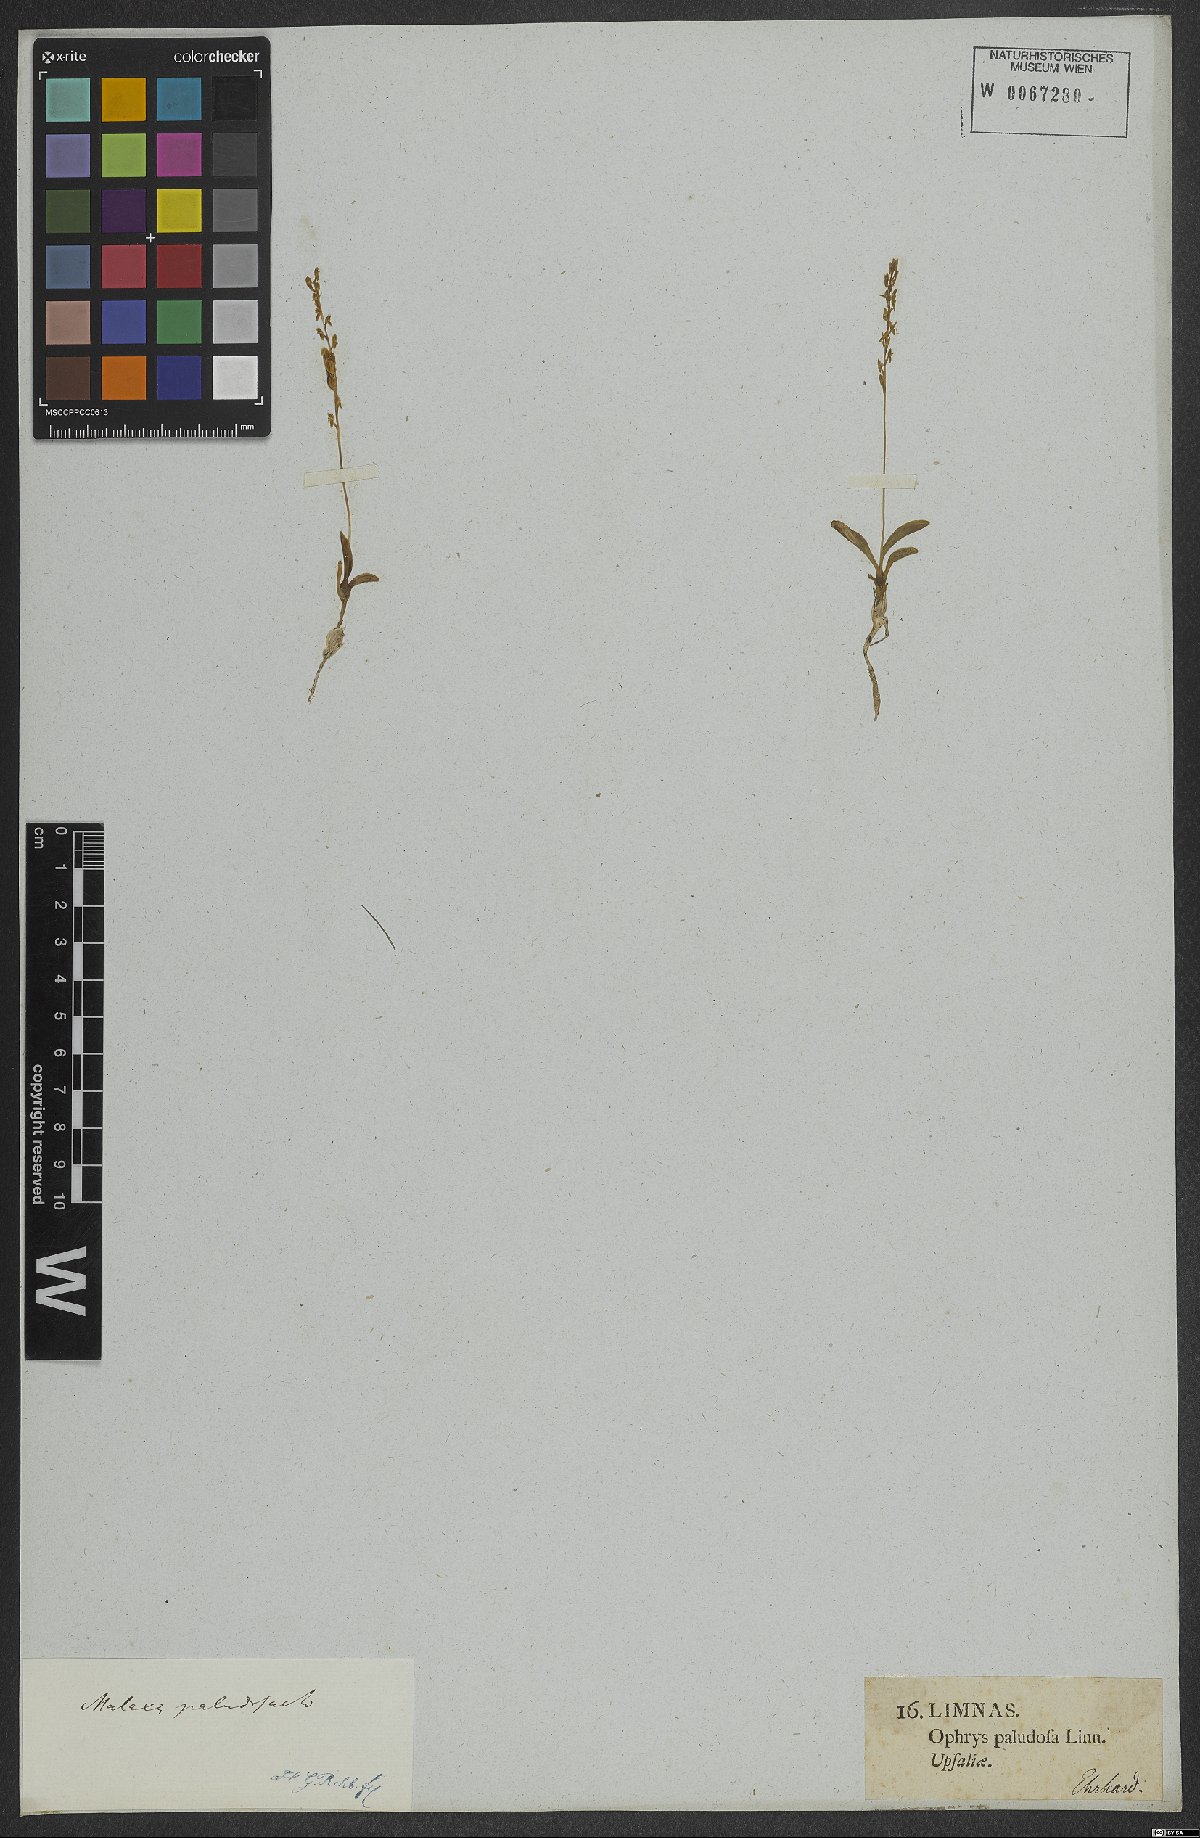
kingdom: Plantae
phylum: Tracheophyta
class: Liliopsida
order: Asparagales
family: Orchidaceae
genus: Hammarbya
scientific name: Hammarbya paludosa
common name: Bog orchid
